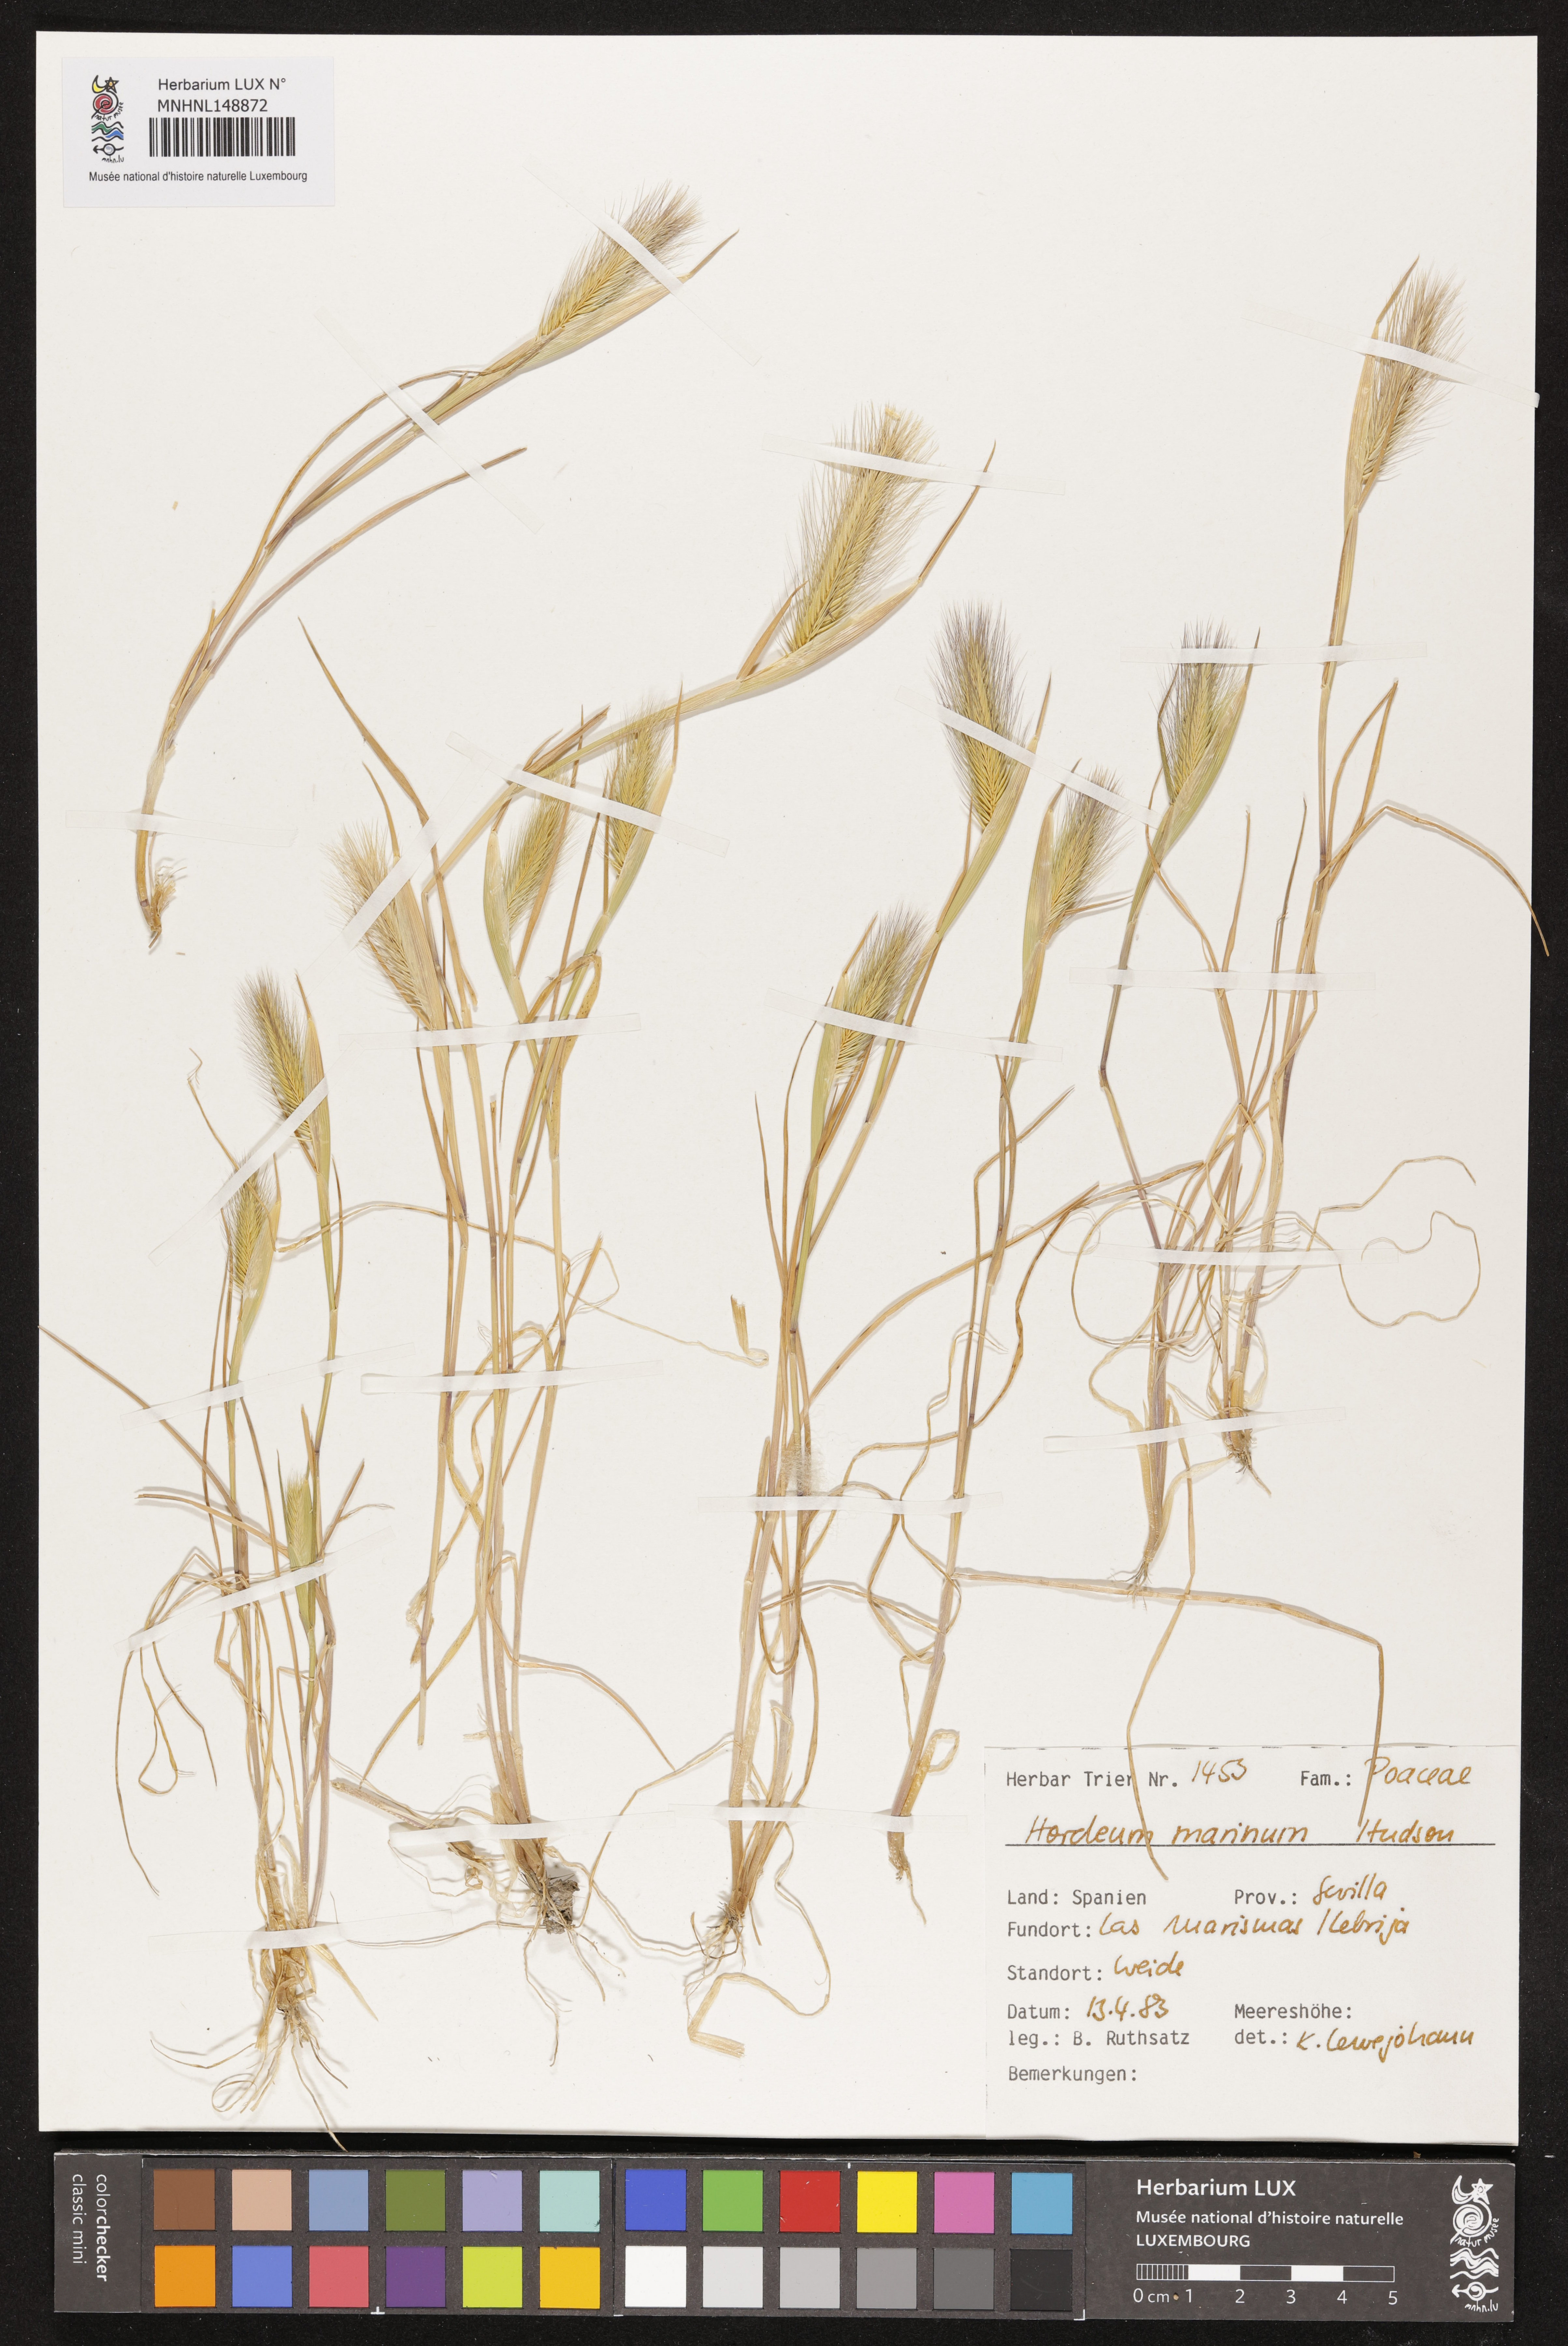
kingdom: Plantae
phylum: Tracheophyta
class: Liliopsida
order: Poales
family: Poaceae
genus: Hordeum
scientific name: Hordeum marinum
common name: Sea barley
